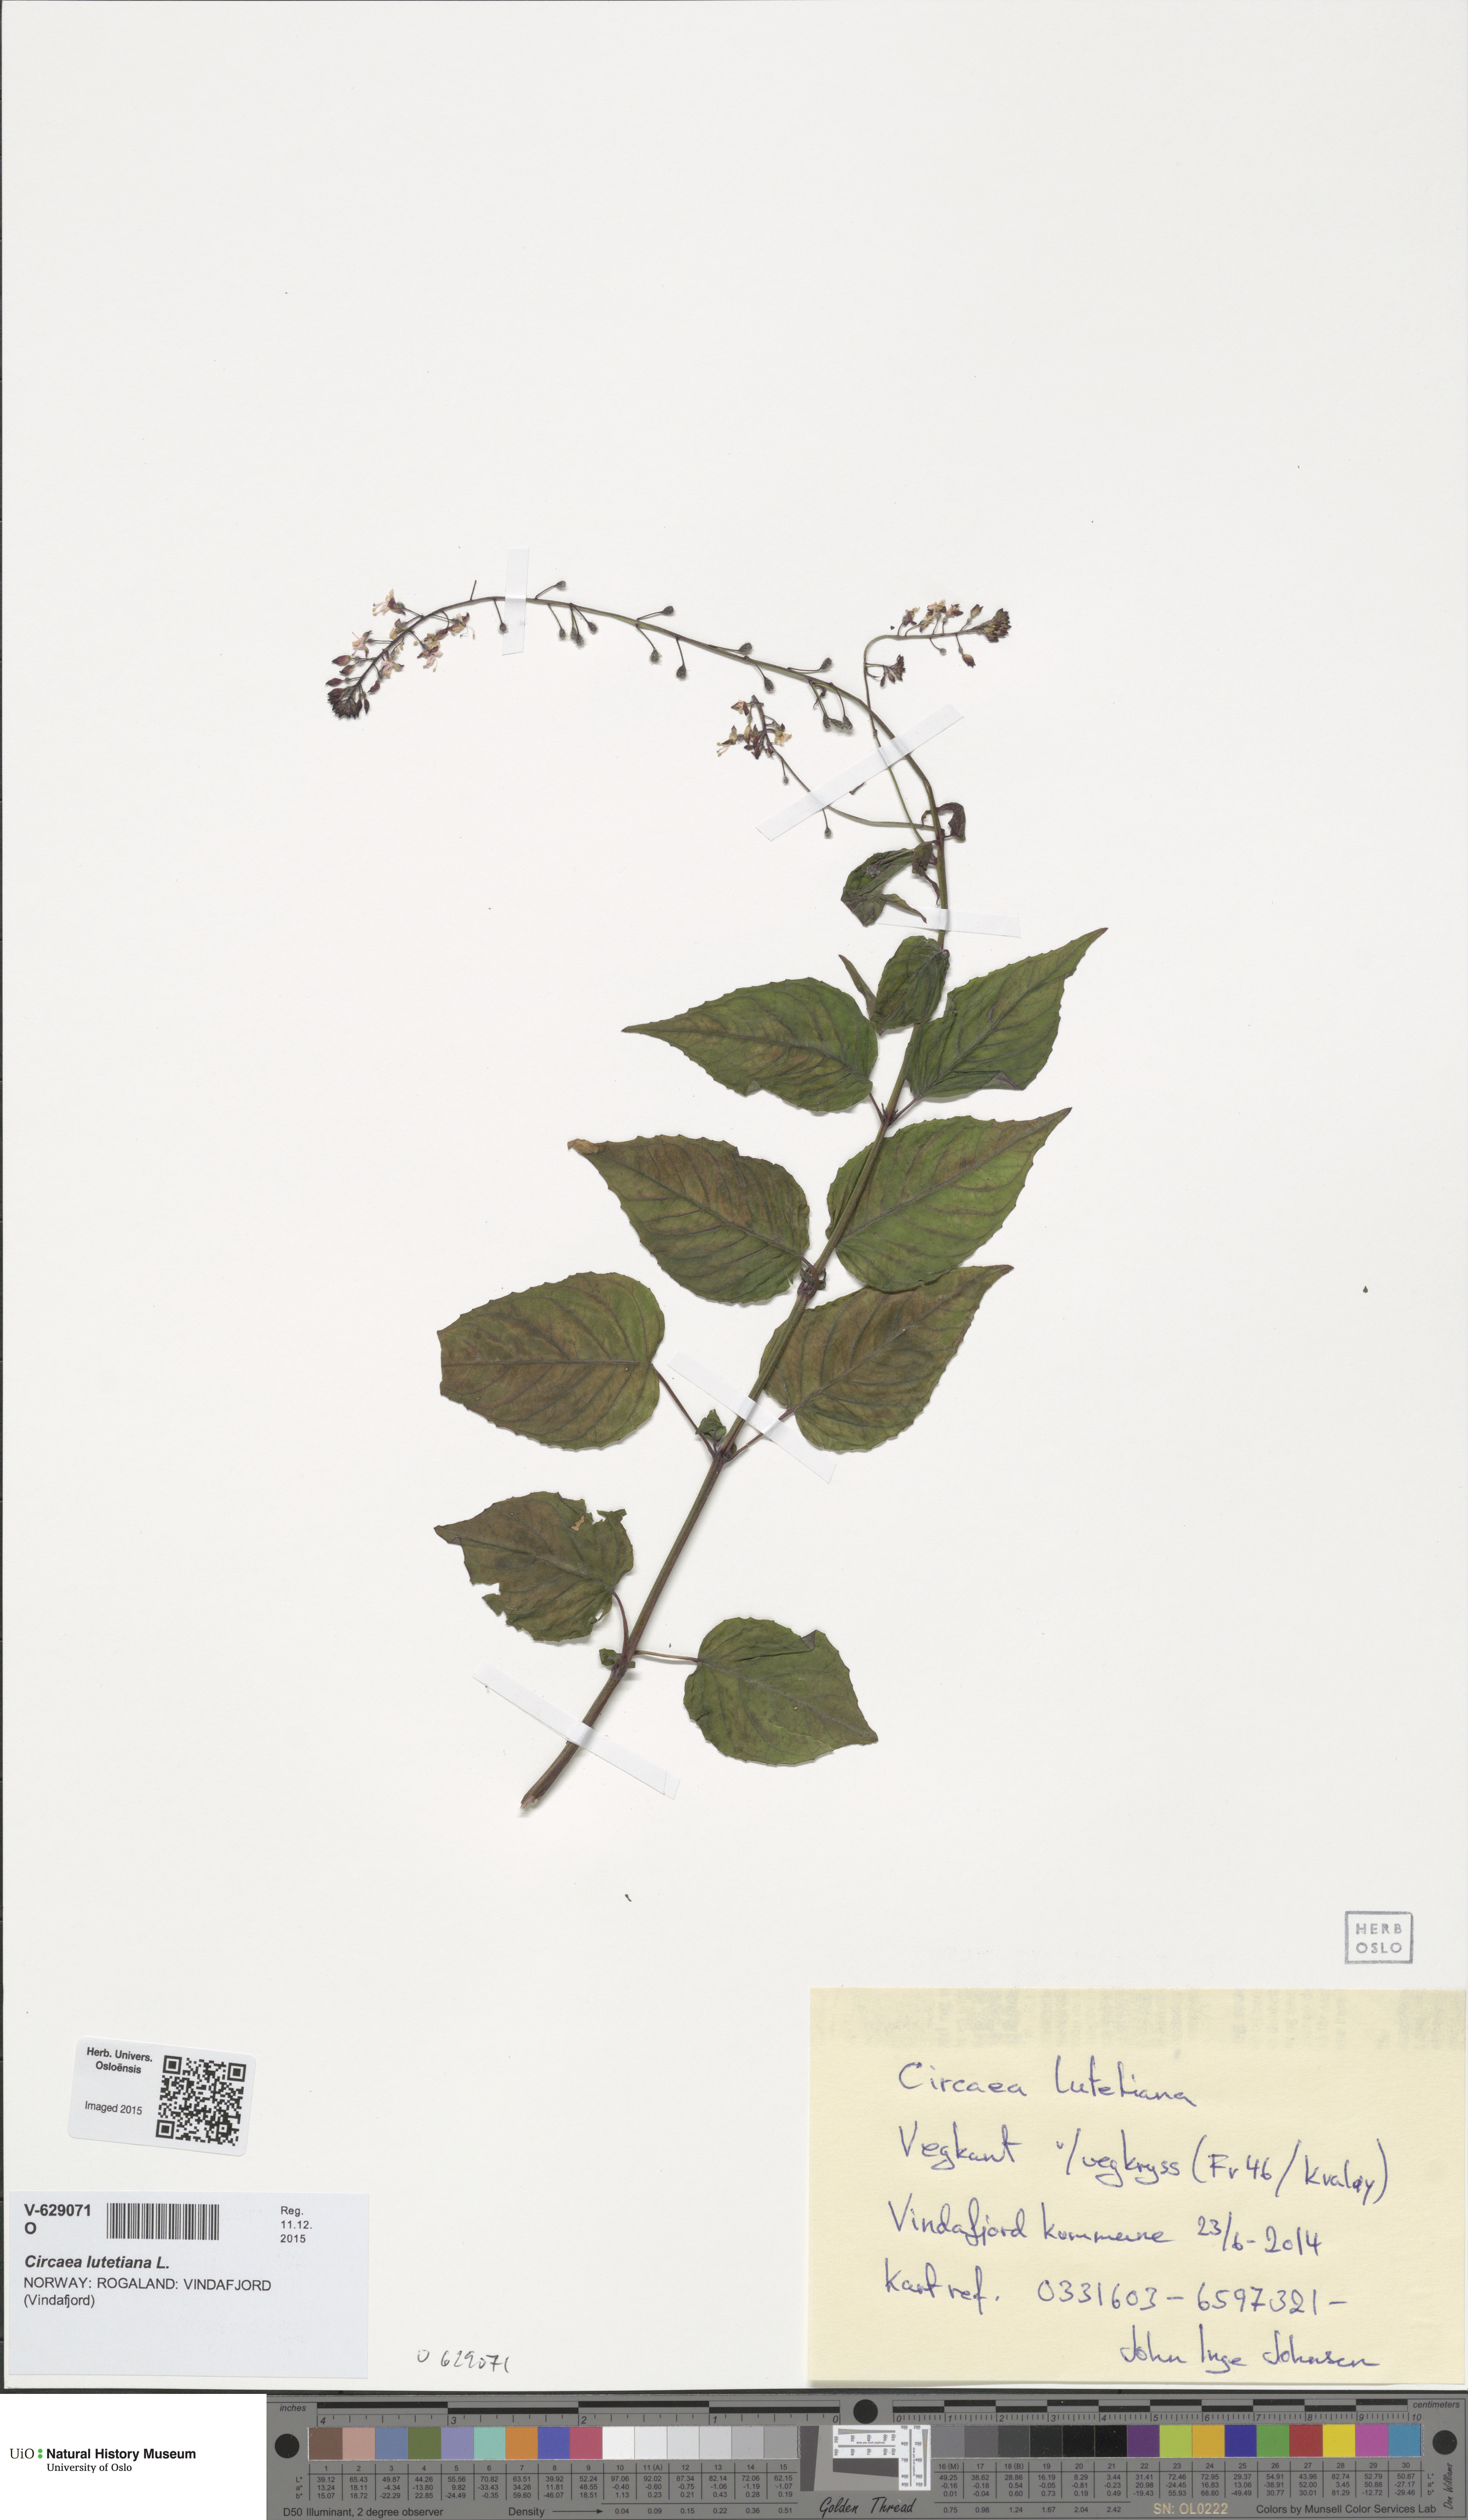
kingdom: Plantae
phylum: Tracheophyta
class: Magnoliopsida
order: Myrtales
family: Onagraceae
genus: Circaea
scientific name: Circaea lutetiana
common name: Enchanter's-nightshade
